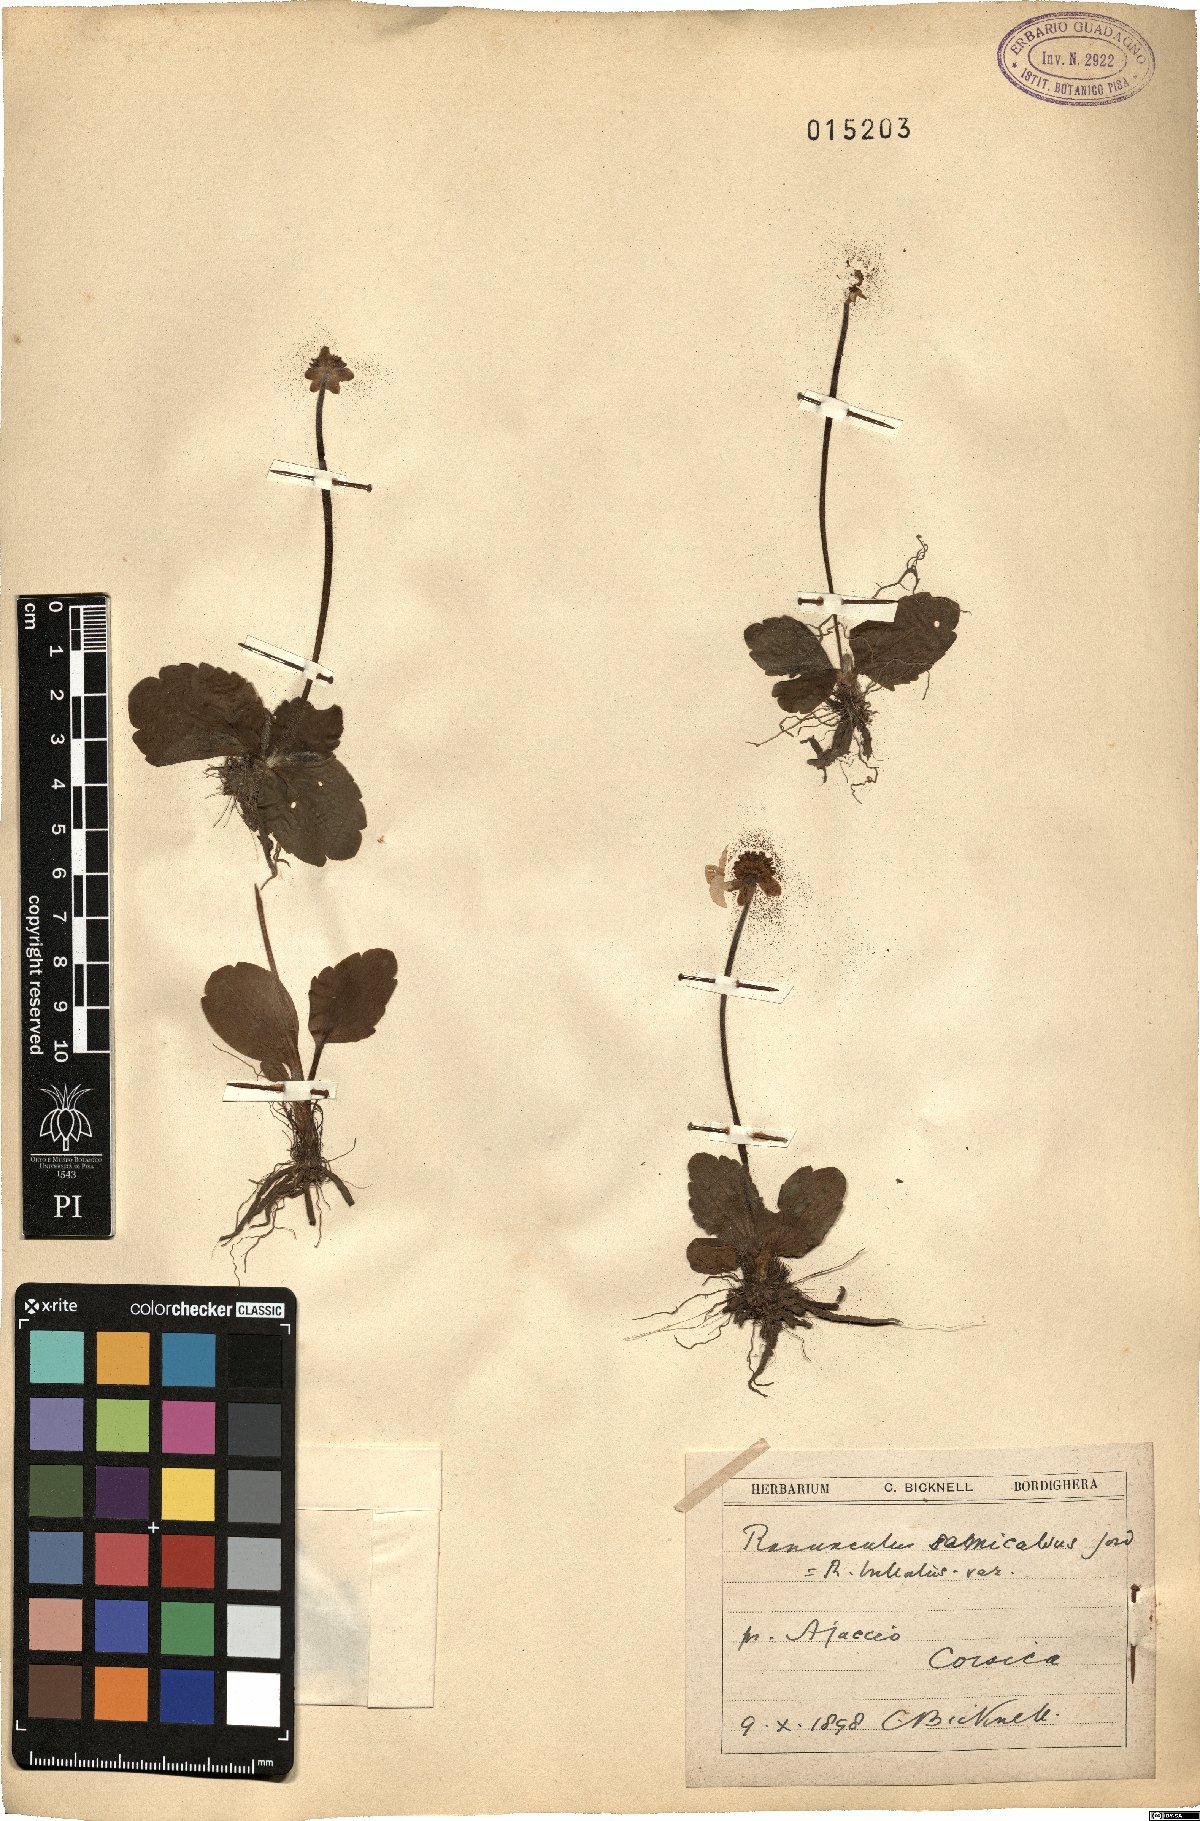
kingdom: Plantae
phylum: Tracheophyta
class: Magnoliopsida
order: Ranunculales
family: Ranunculaceae
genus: Ranunculus
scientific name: Ranunculus bullatus
